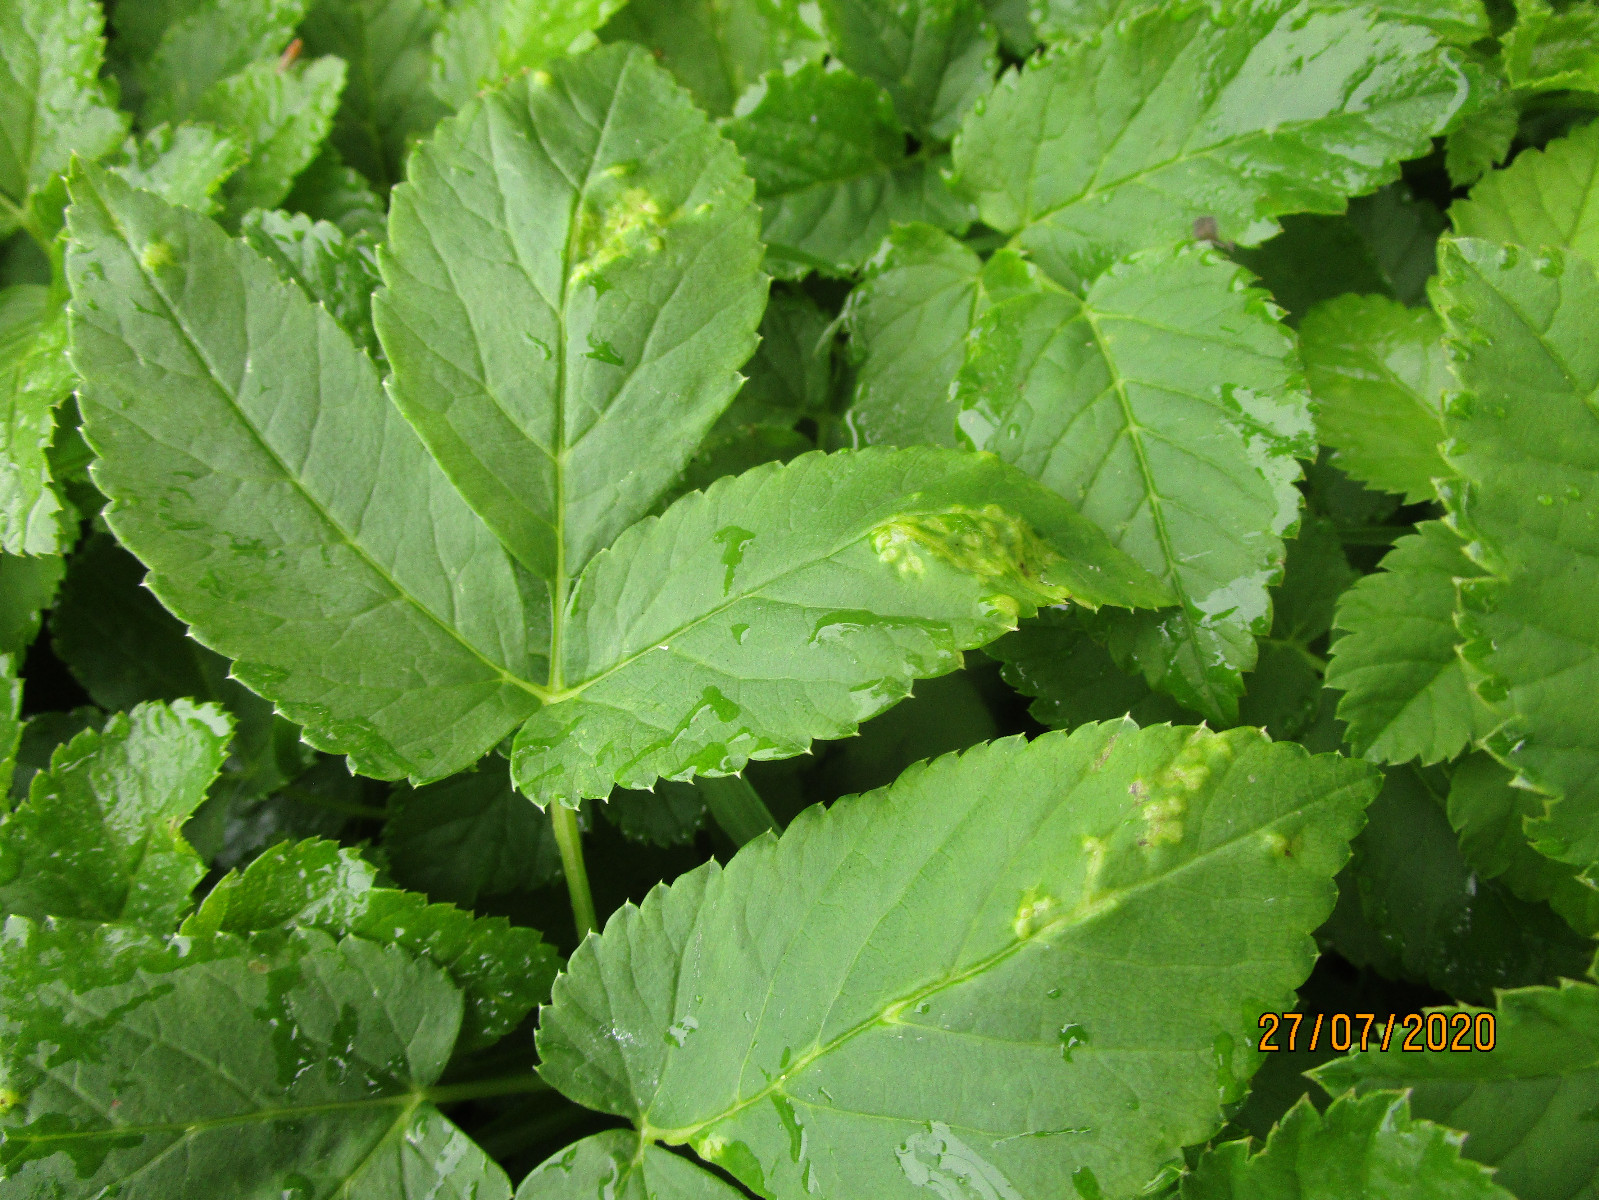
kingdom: Fungi
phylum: Ascomycota
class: Taphrinomycetes
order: Taphrinales
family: Taphrinaceae
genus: Protomyces
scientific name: Protomyces macrosporus
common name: skvalderkål-vablesæk
